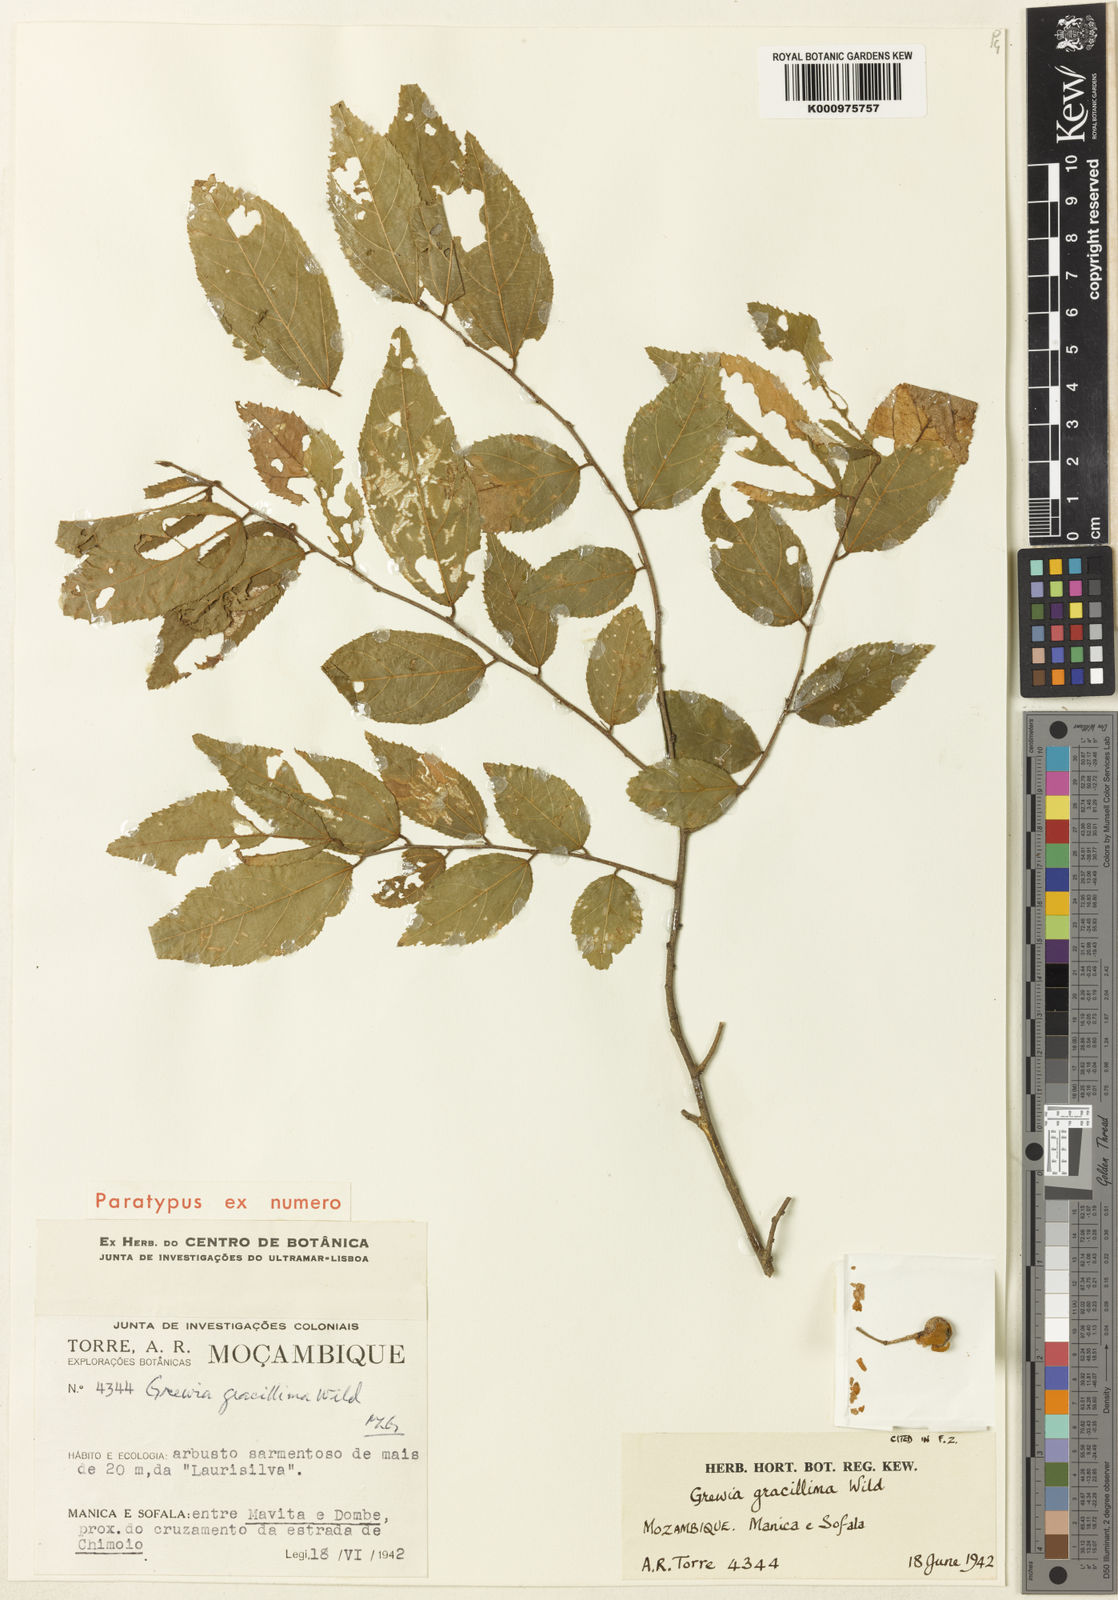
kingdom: Plantae
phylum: Tracheophyta
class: Magnoliopsida
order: Malvales
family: Malvaceae
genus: Grewia
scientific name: Grewia gracillima
